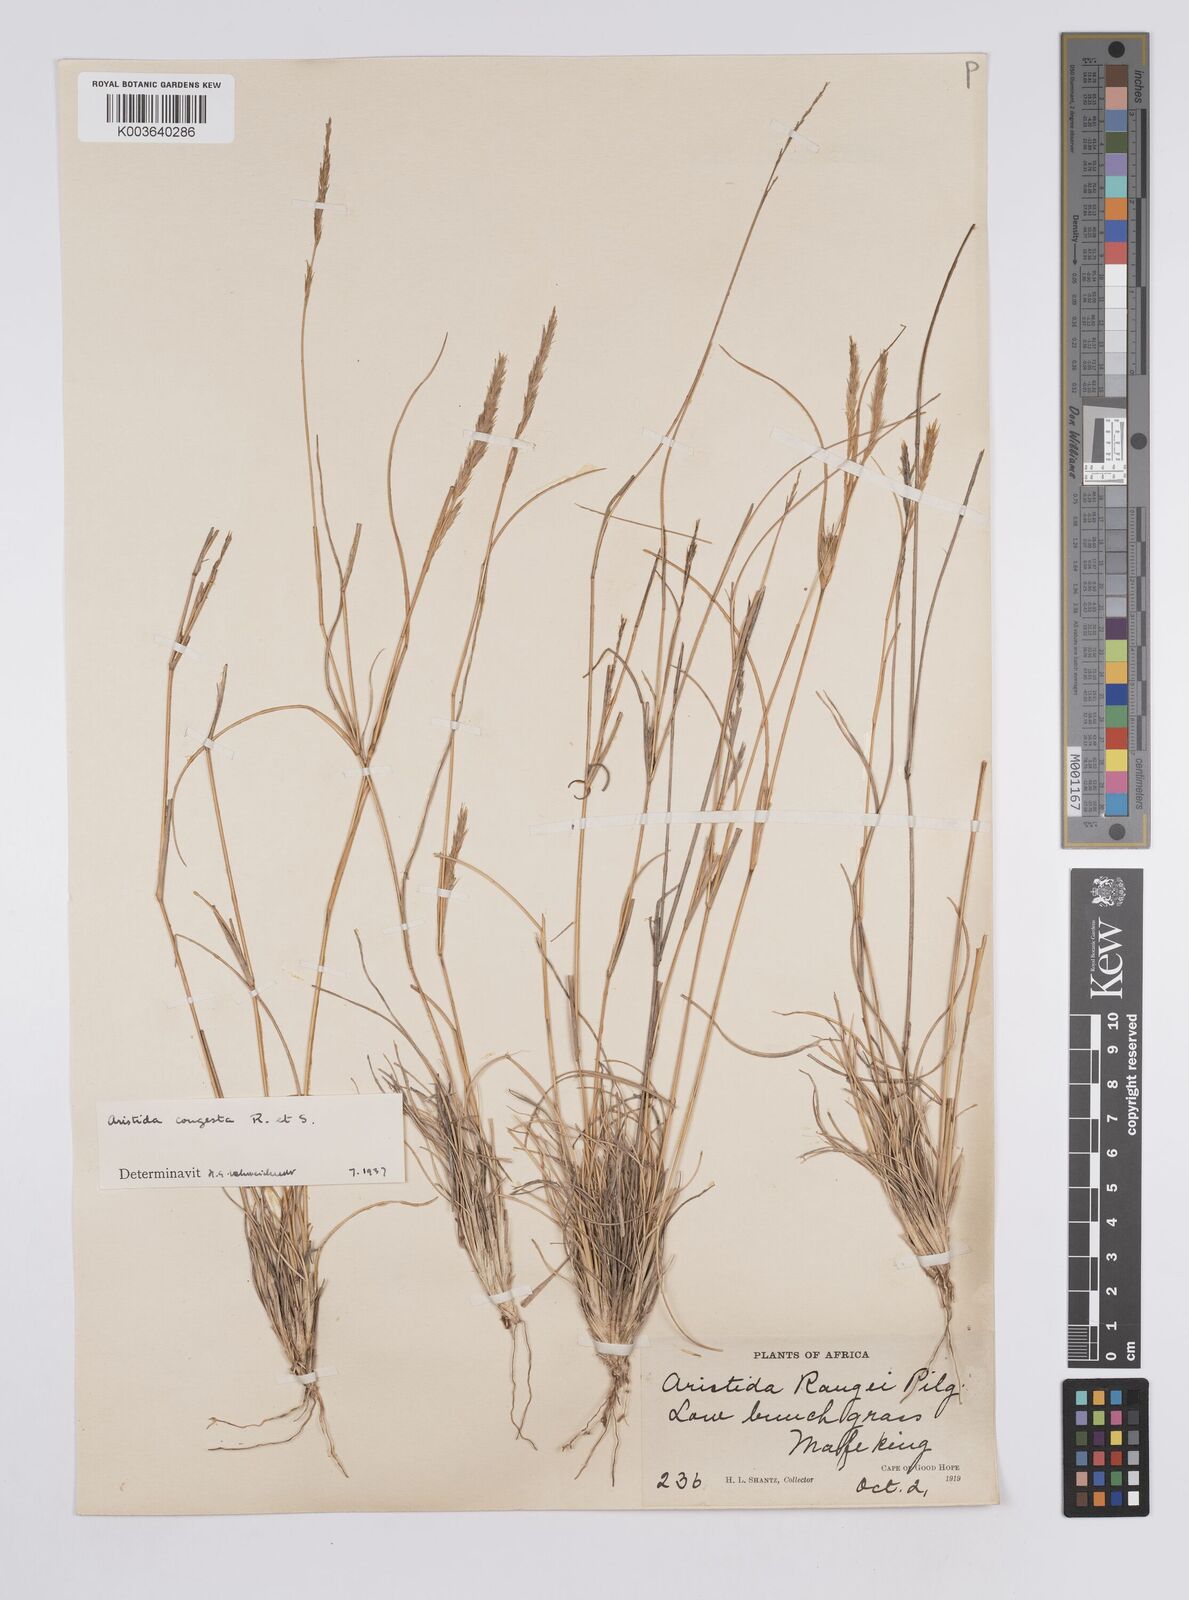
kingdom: Plantae
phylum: Tracheophyta
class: Liliopsida
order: Poales
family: Poaceae
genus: Aristida
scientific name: Aristida congesta
